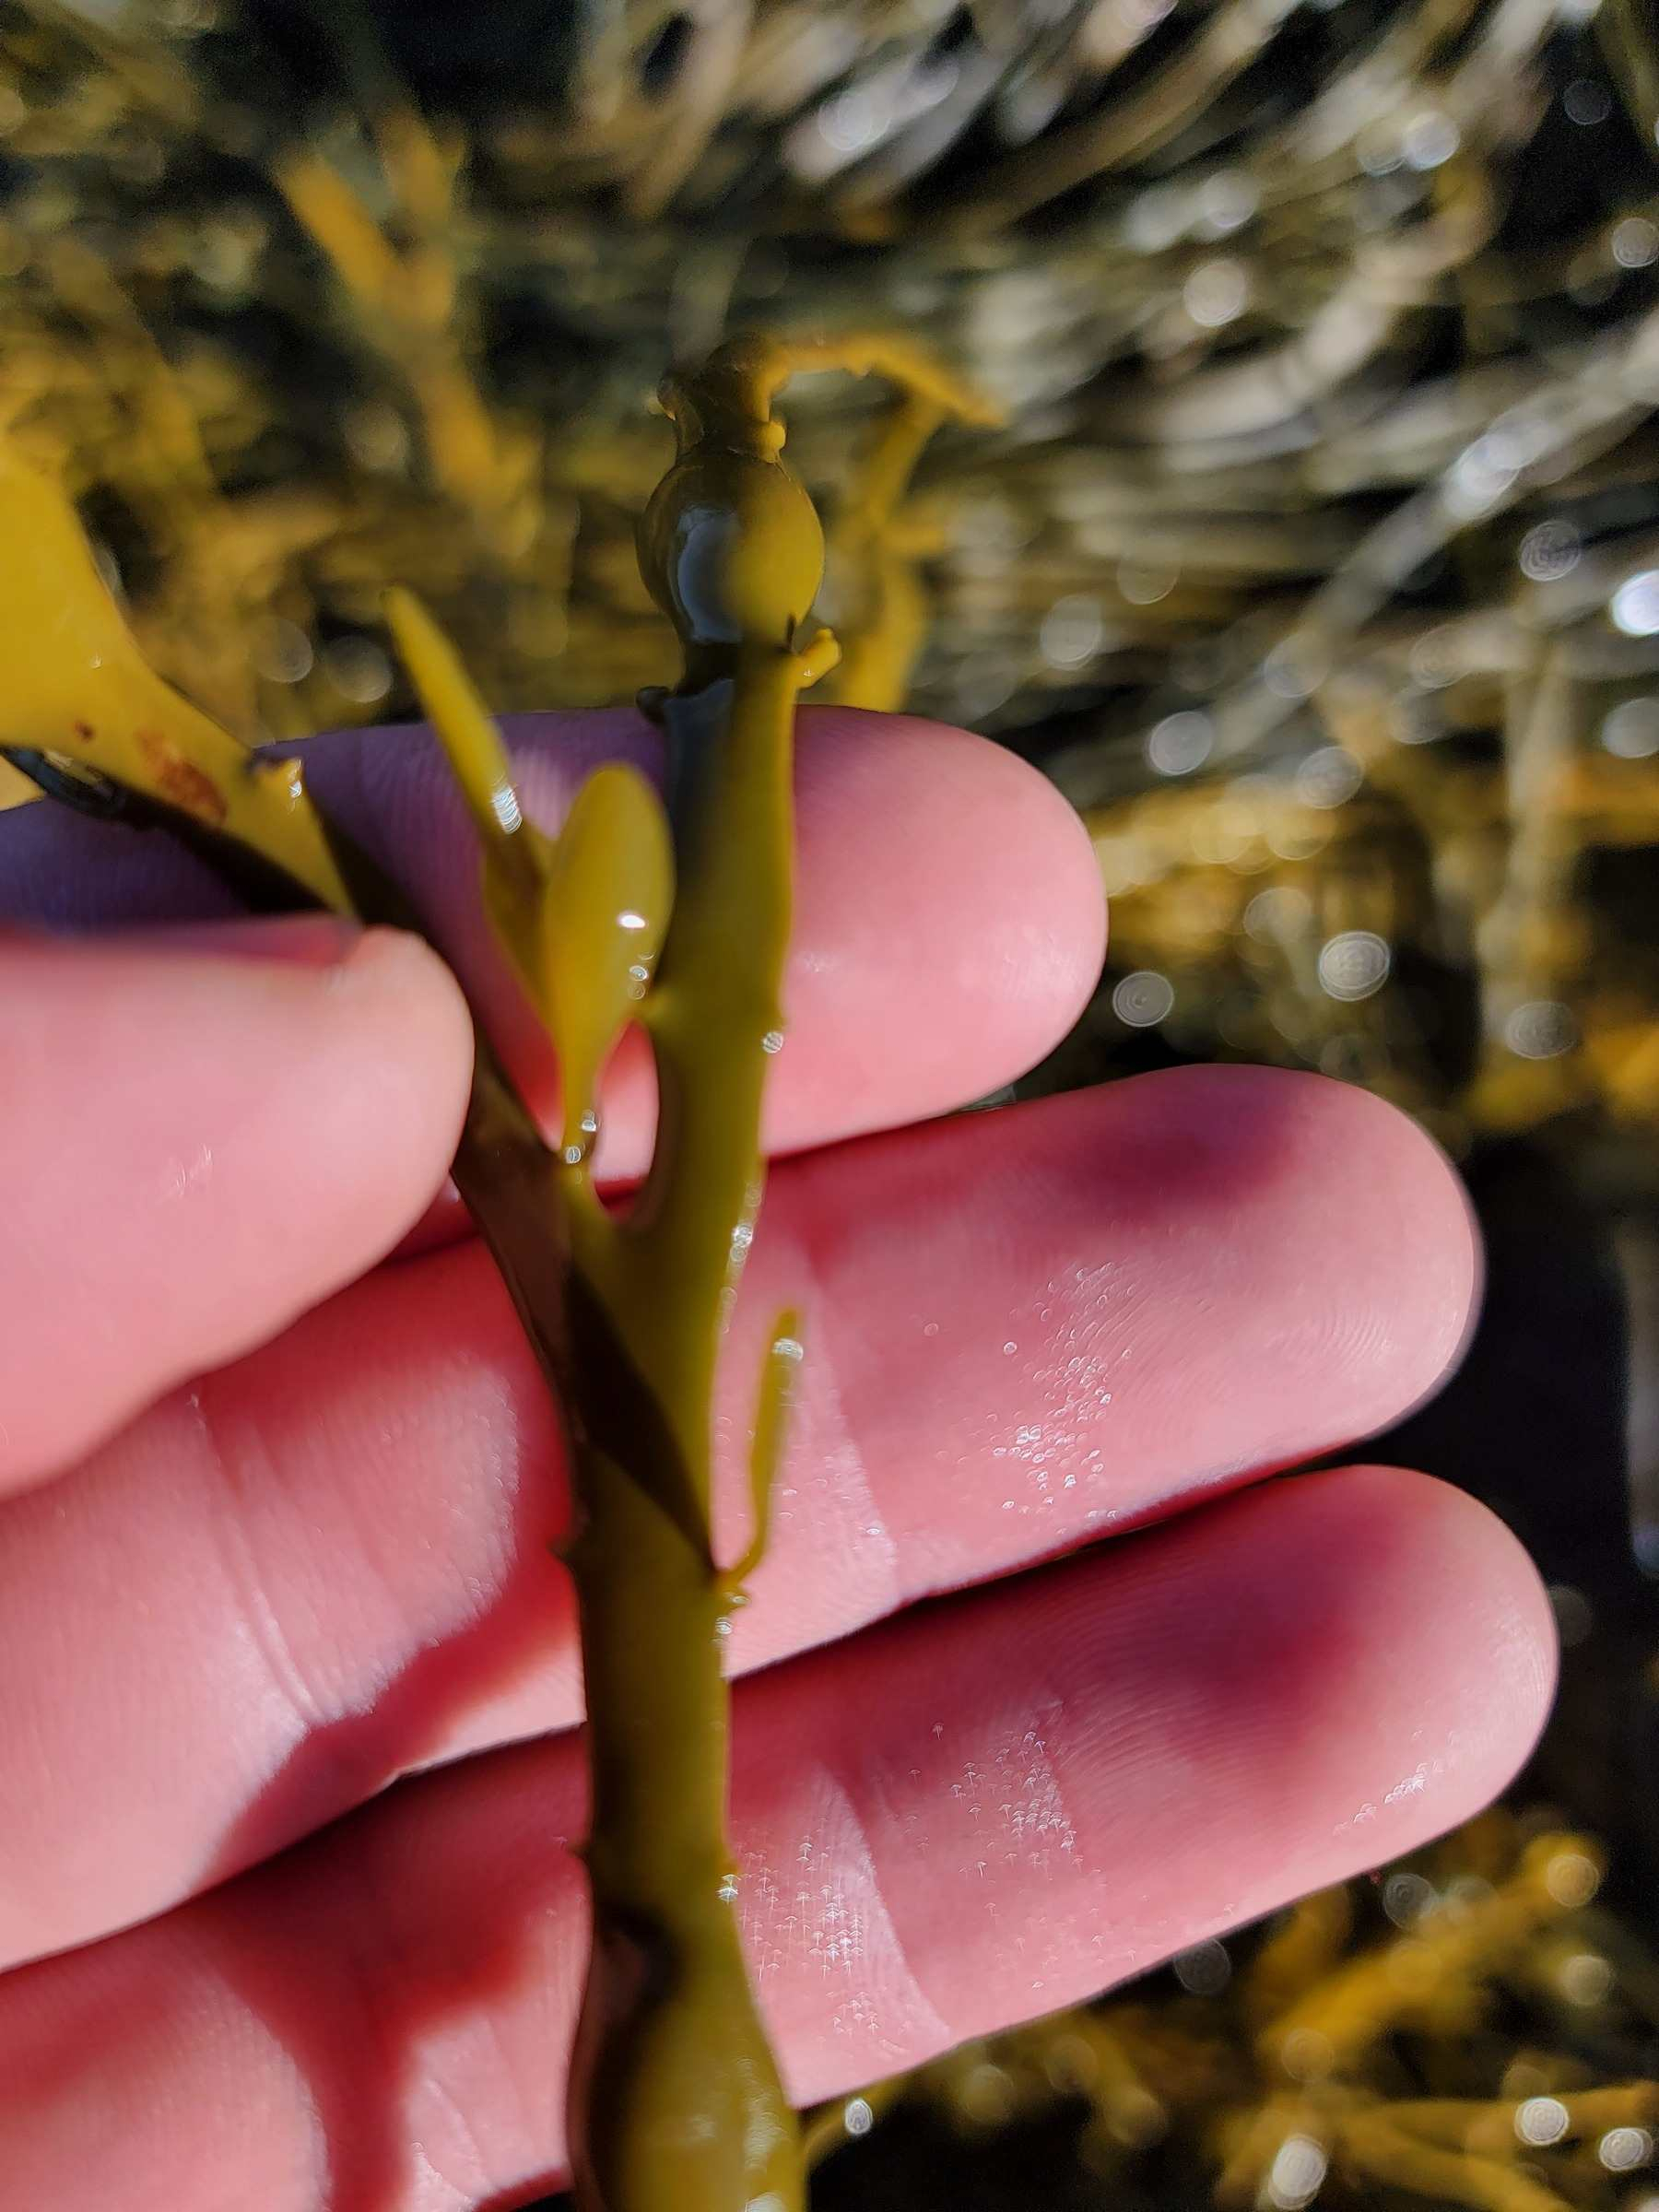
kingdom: Chromista
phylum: Ochrophyta
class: Phaeophyceae
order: Fucales
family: Fucaceae
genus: Ascophyllum
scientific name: Ascophyllum nodosum
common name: Rockweed
